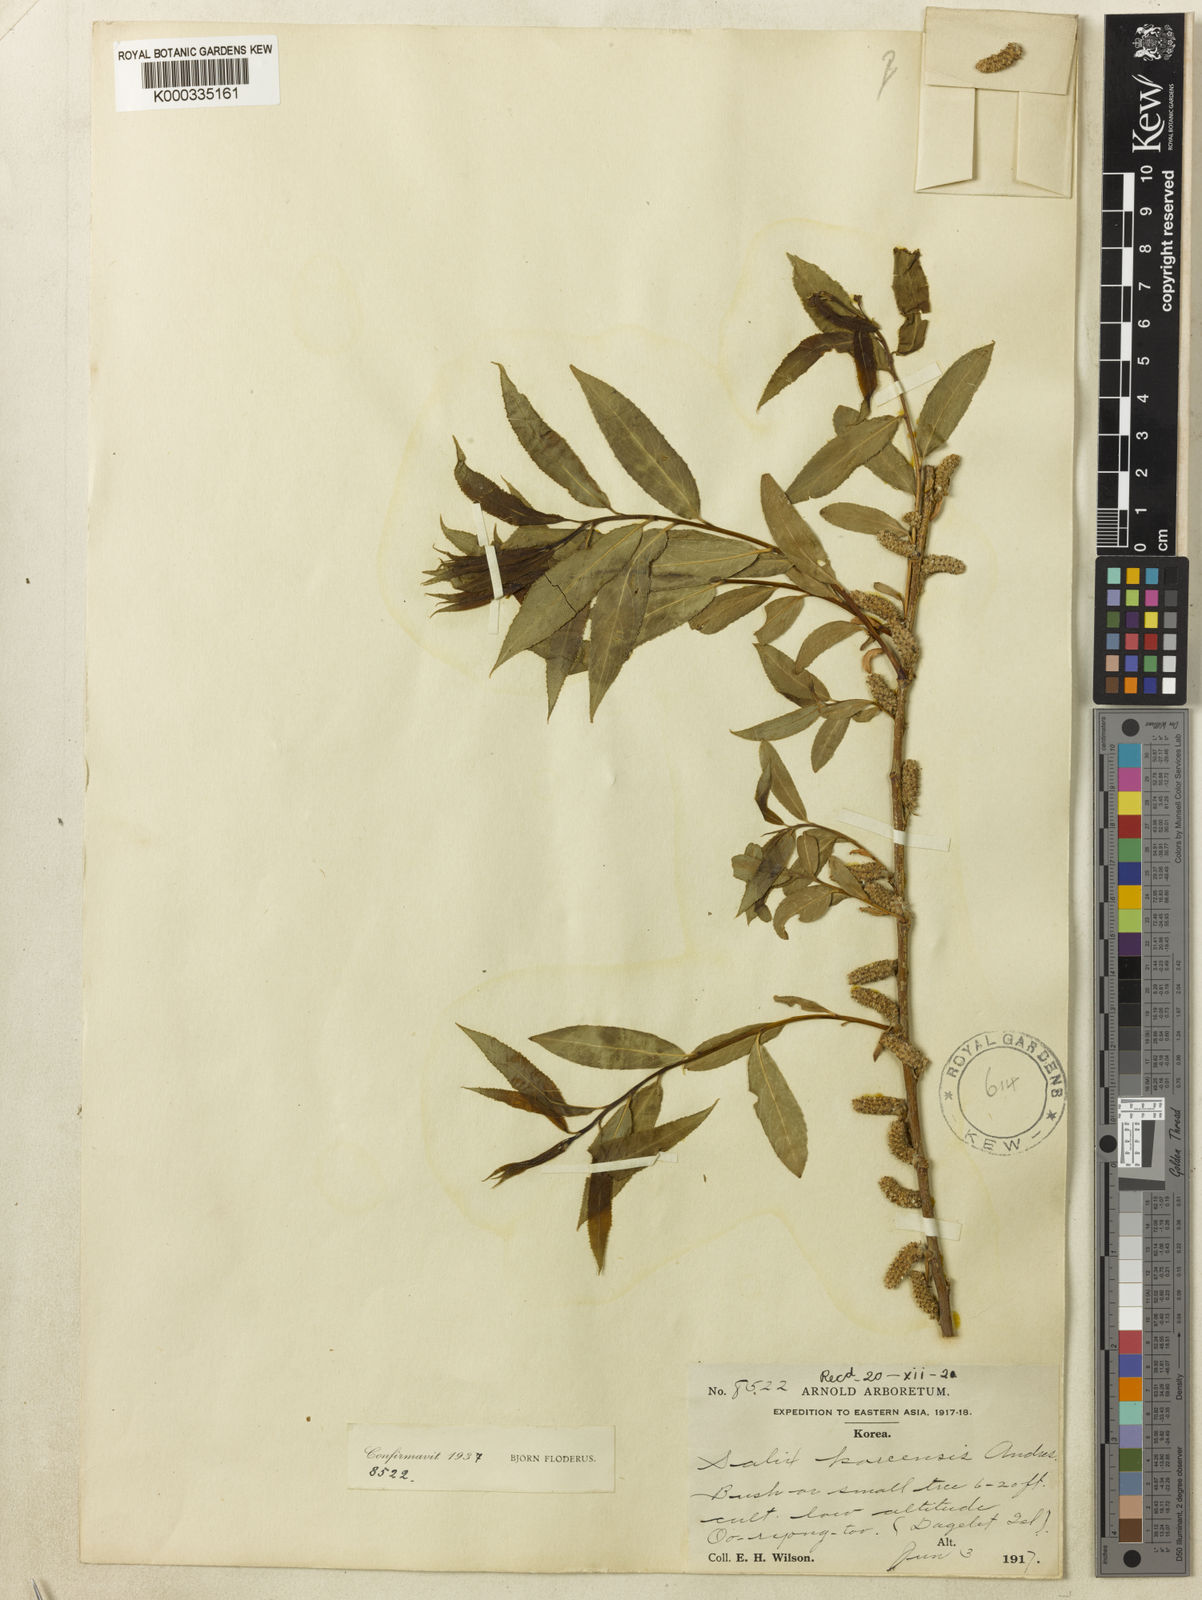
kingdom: Plantae
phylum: Tracheophyta
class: Magnoliopsida
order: Malpighiales
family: Salicaceae
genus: Salix
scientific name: Salix pierotii
